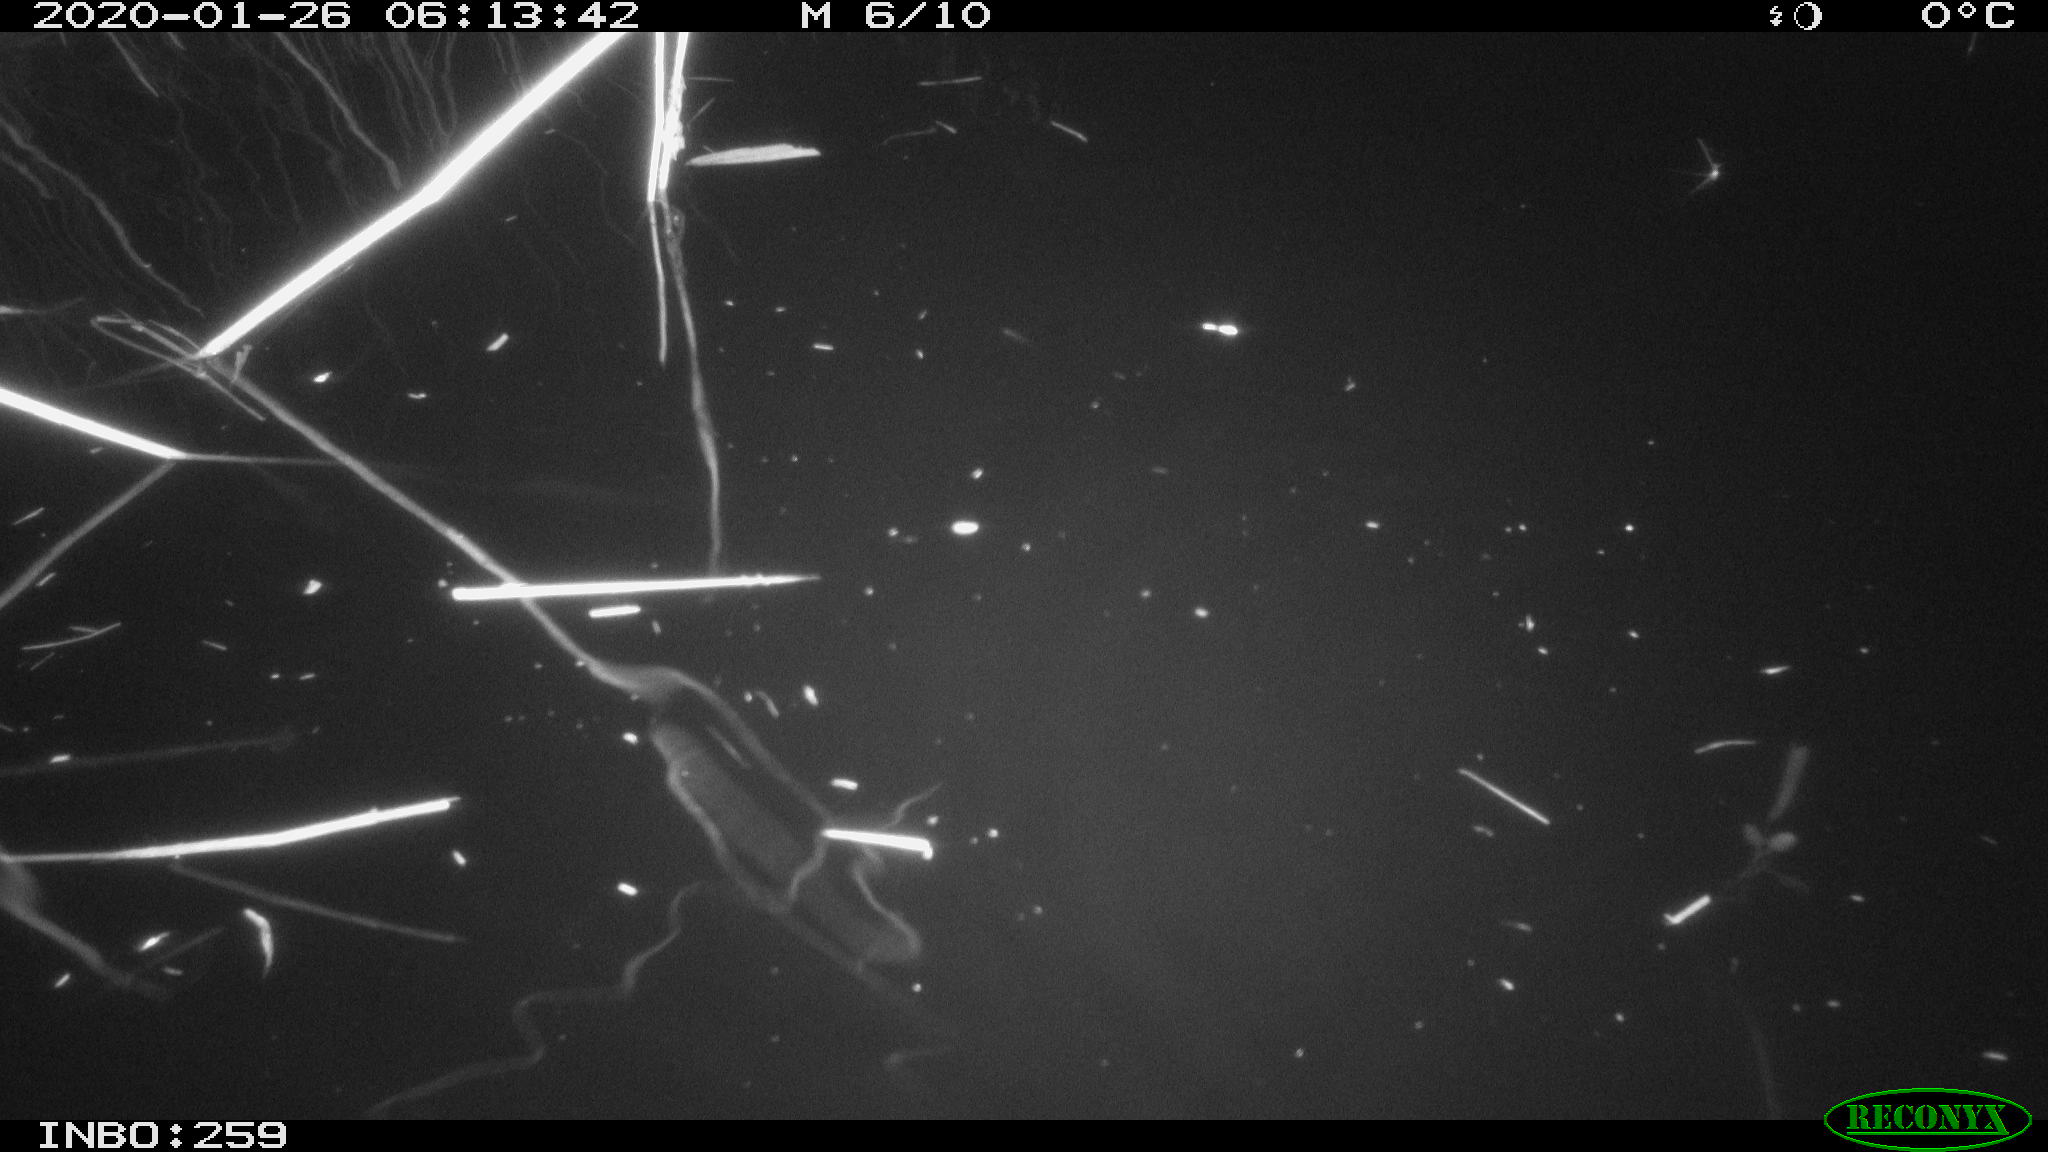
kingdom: Animalia
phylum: Chordata
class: Mammalia
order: Rodentia
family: Cricetidae
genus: Ondatra
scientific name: Ondatra zibethicus
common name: Muskrat
